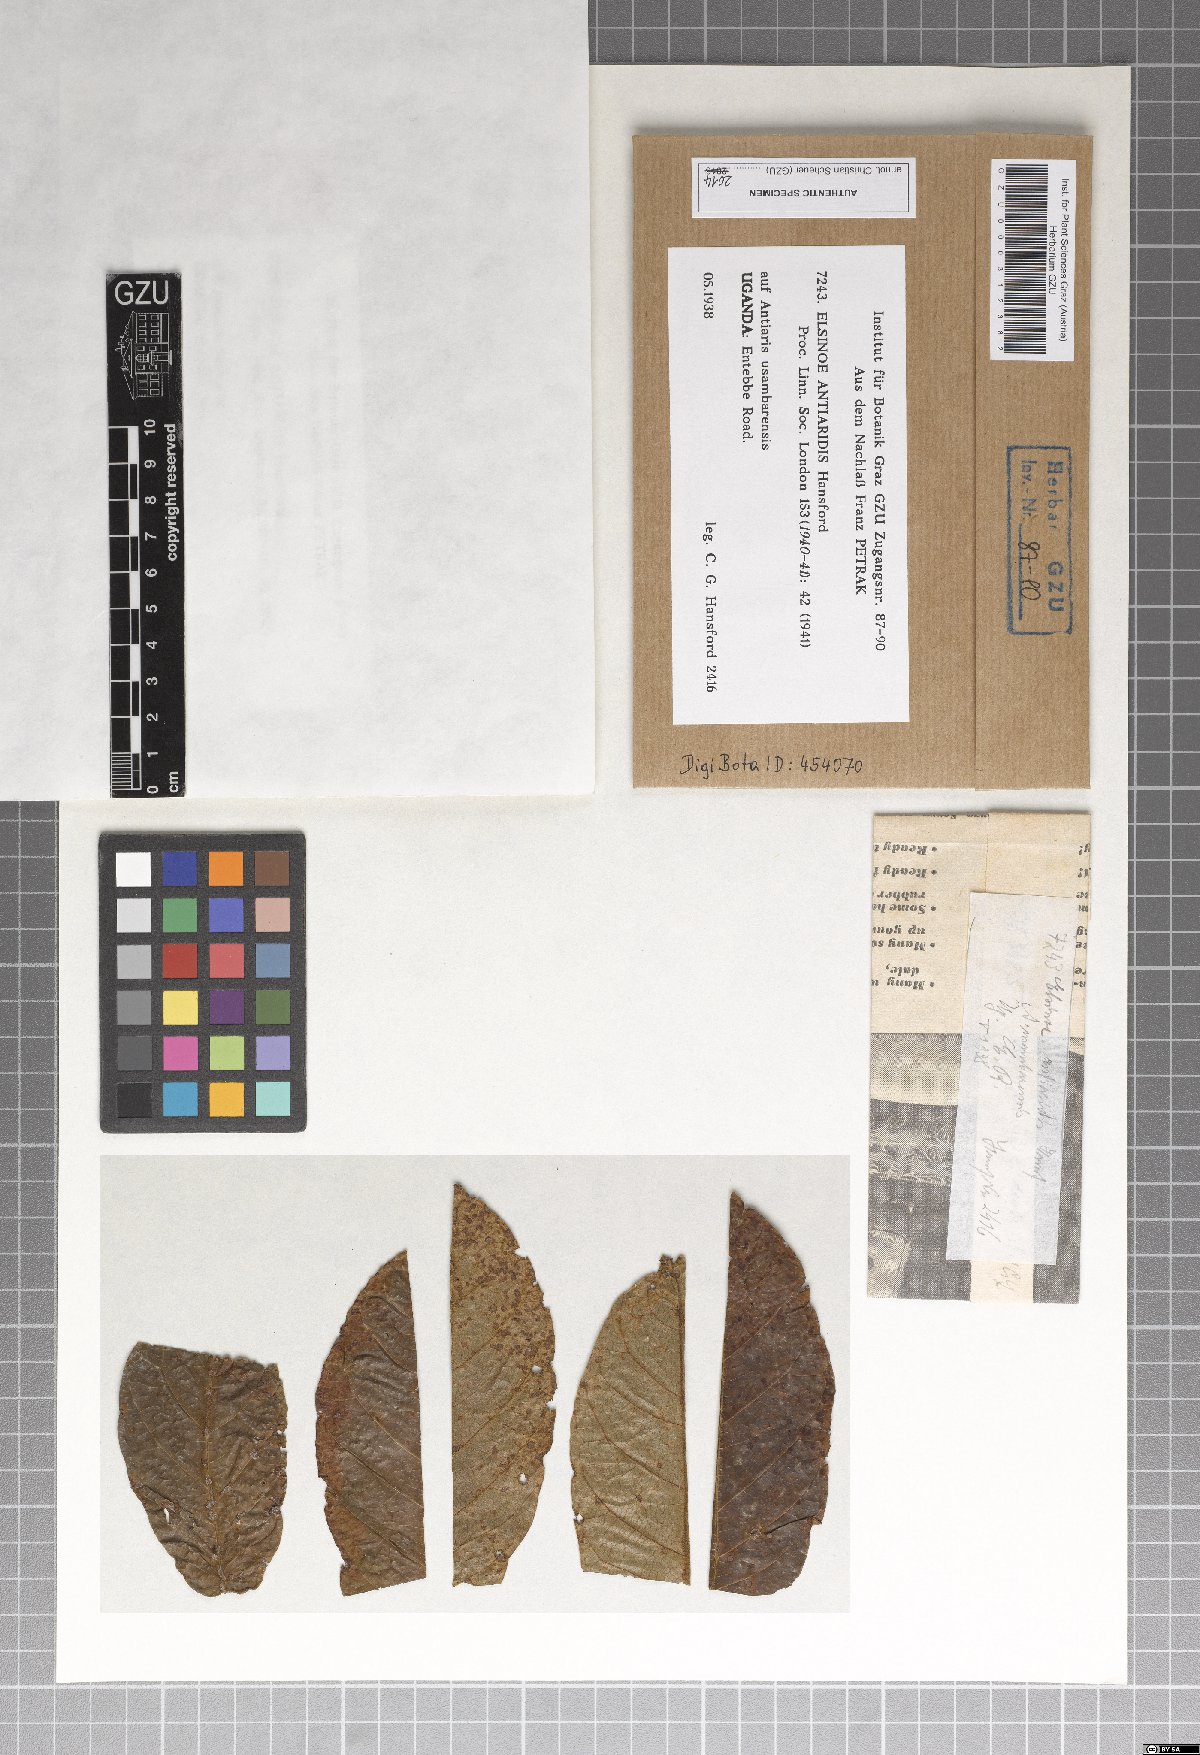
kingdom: Fungi
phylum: Ascomycota
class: Dothideomycetes
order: Myriangiales
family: Elsinoaceae
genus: Elsinoe
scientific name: Elsinoe antiaridis
